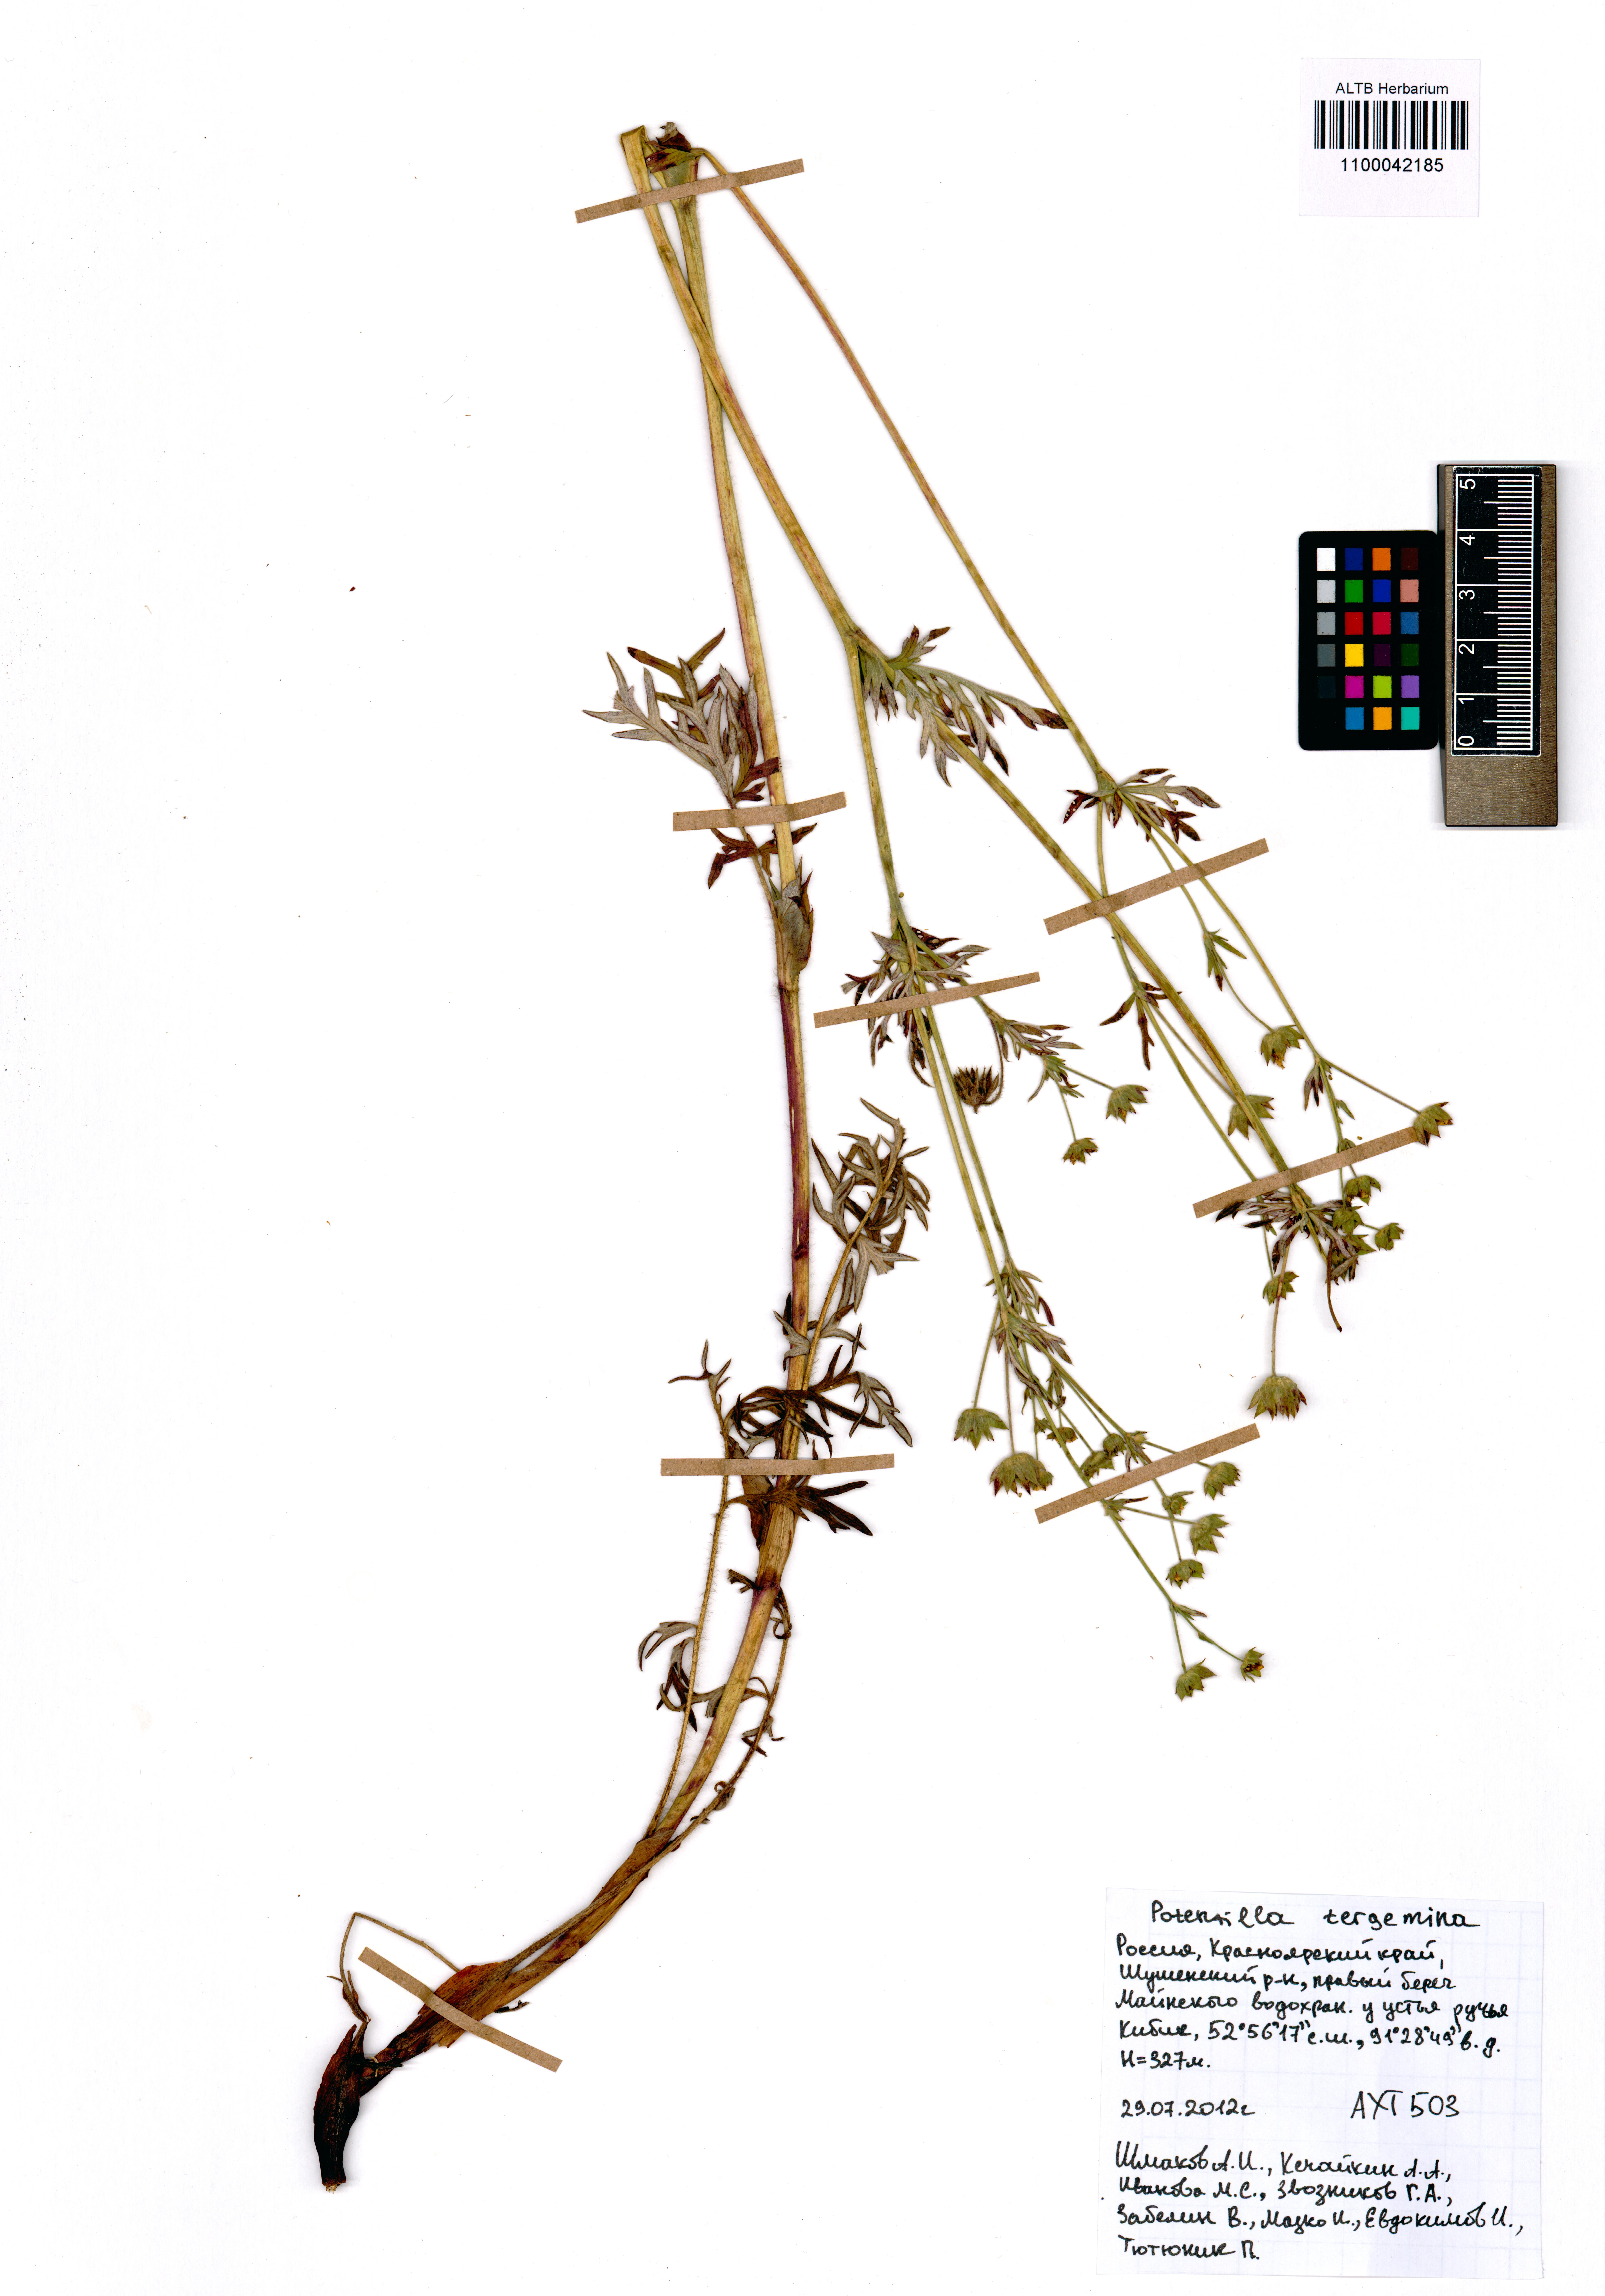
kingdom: Plantae
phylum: Tracheophyta
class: Magnoliopsida
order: Rosales
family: Rosaceae
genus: Potentilla
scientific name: Potentilla tergemina
